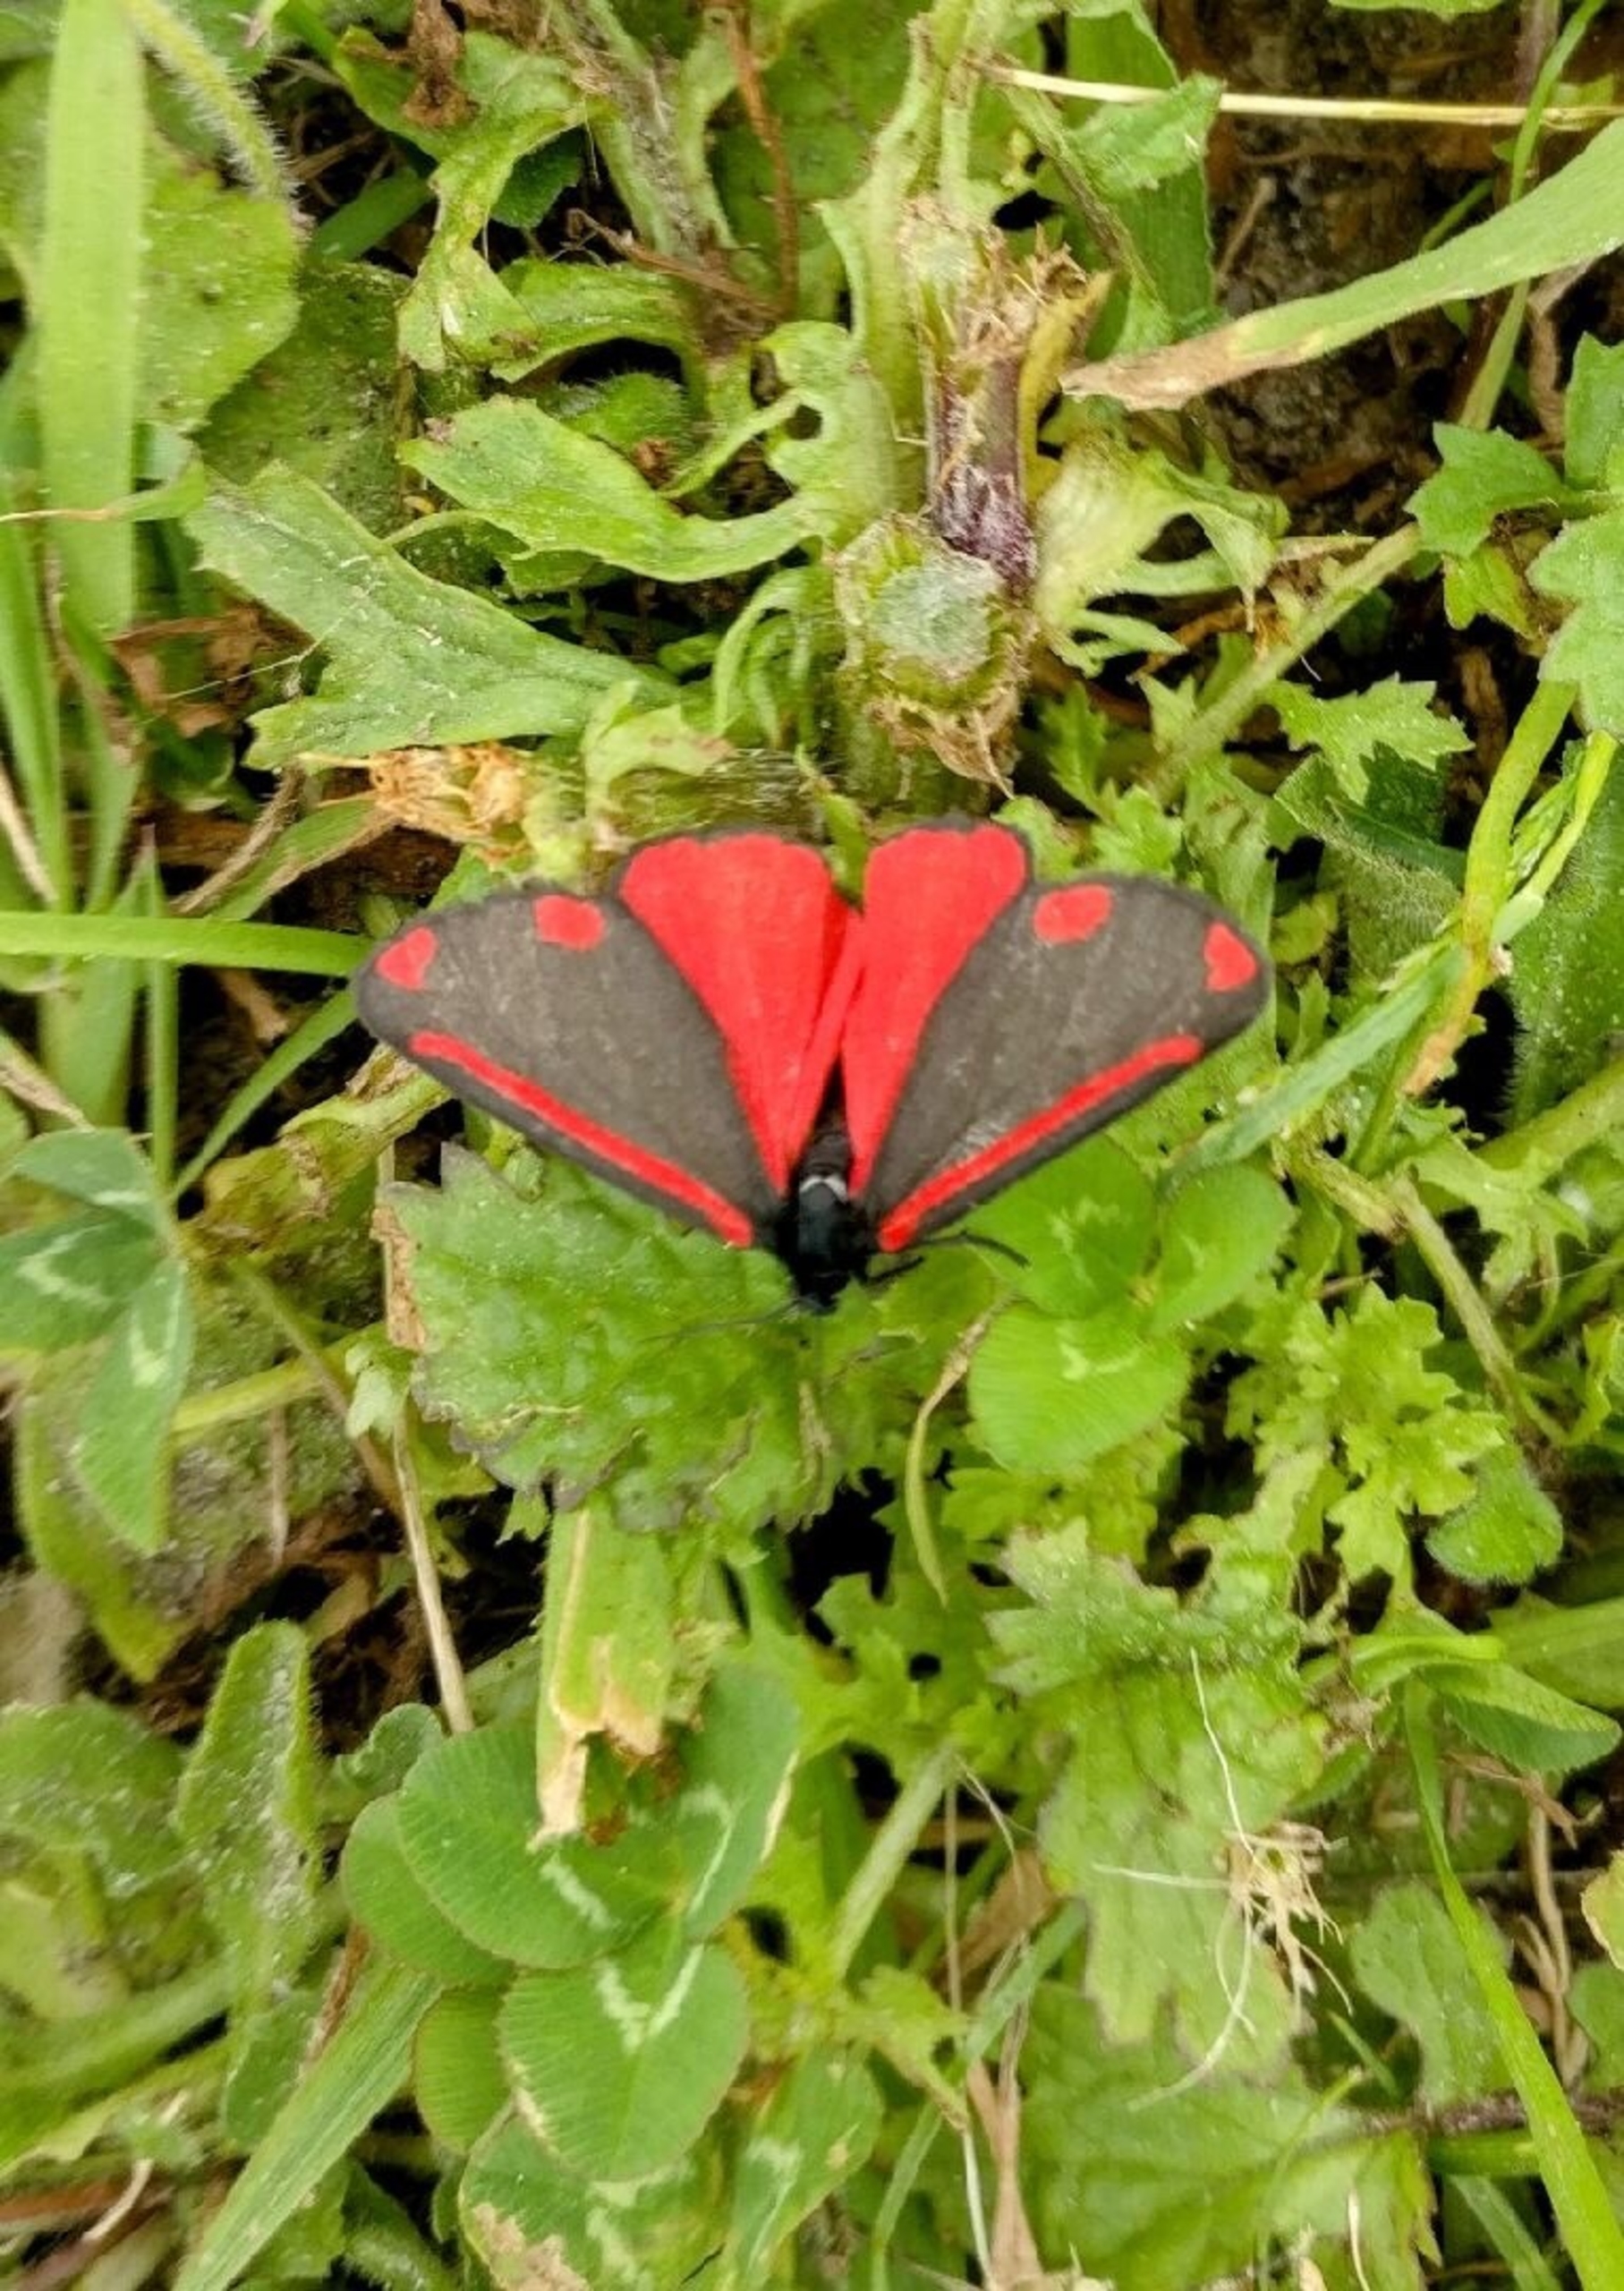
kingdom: Animalia
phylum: Arthropoda
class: Insecta
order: Lepidoptera
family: Erebidae
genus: Tyria
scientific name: Tyria jacobaeae
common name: Blodplet
